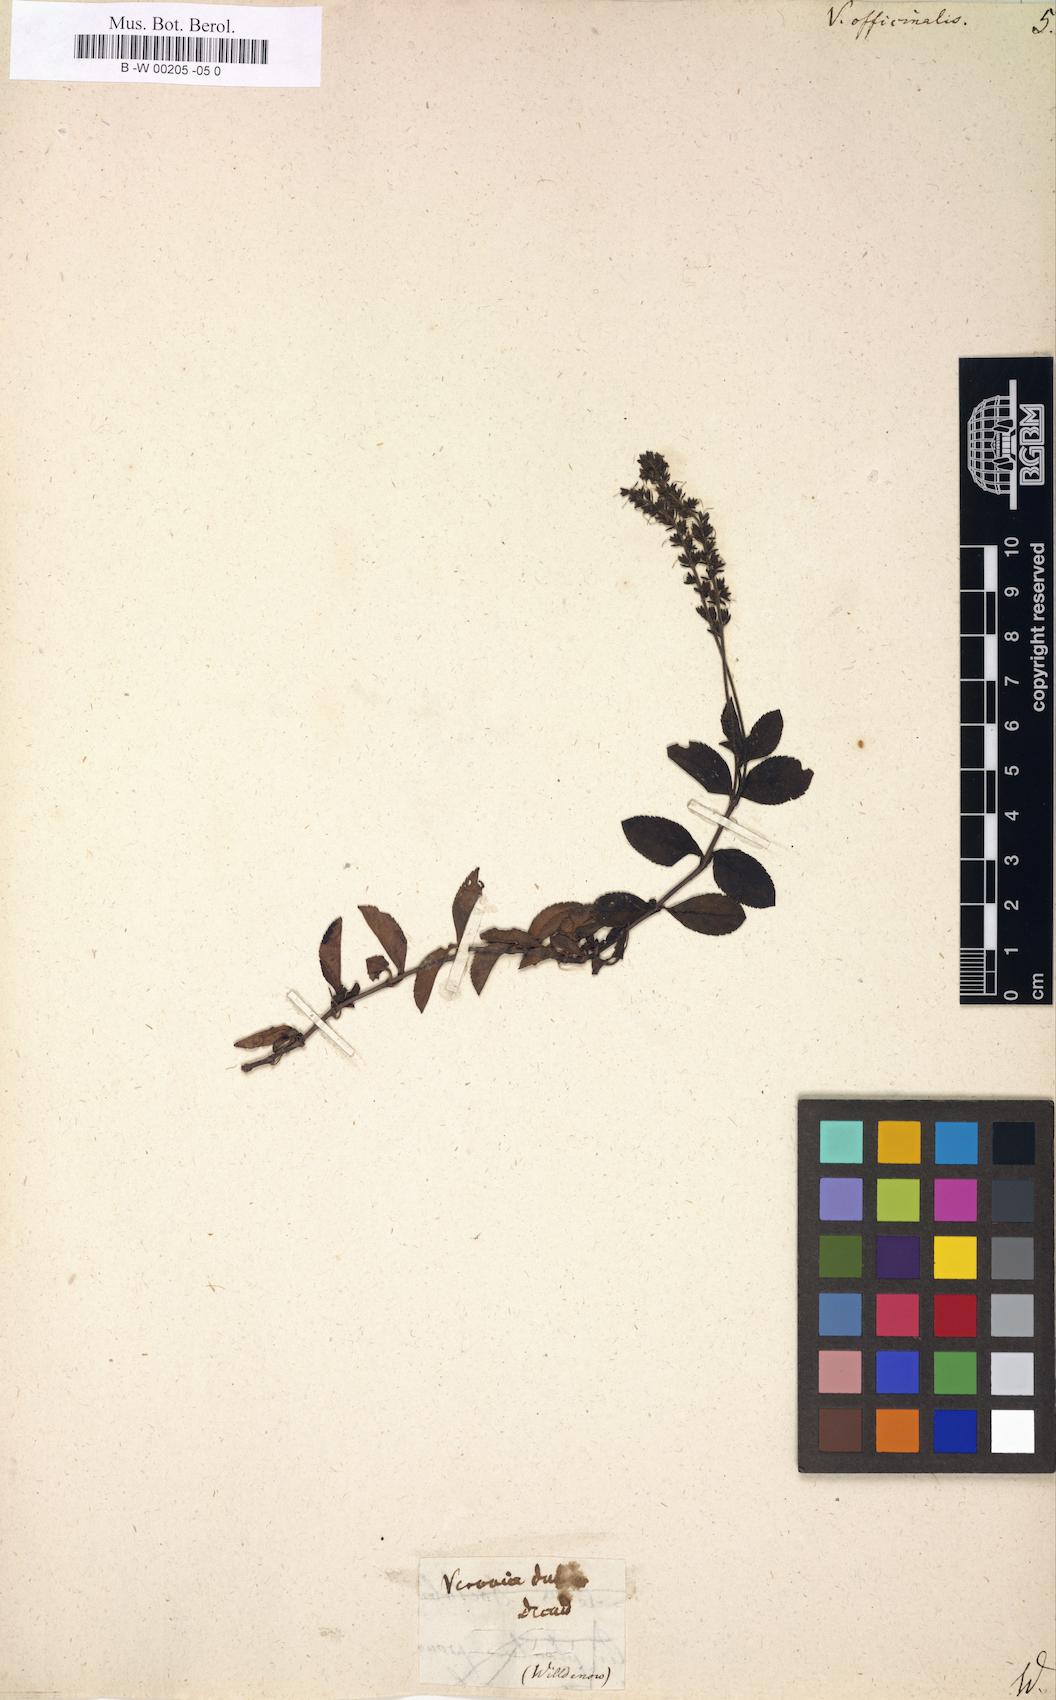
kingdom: Plantae
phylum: Tracheophyta
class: Magnoliopsida
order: Lamiales
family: Plantaginaceae
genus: Veronica
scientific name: Veronica officinalis
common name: Common speedwell
